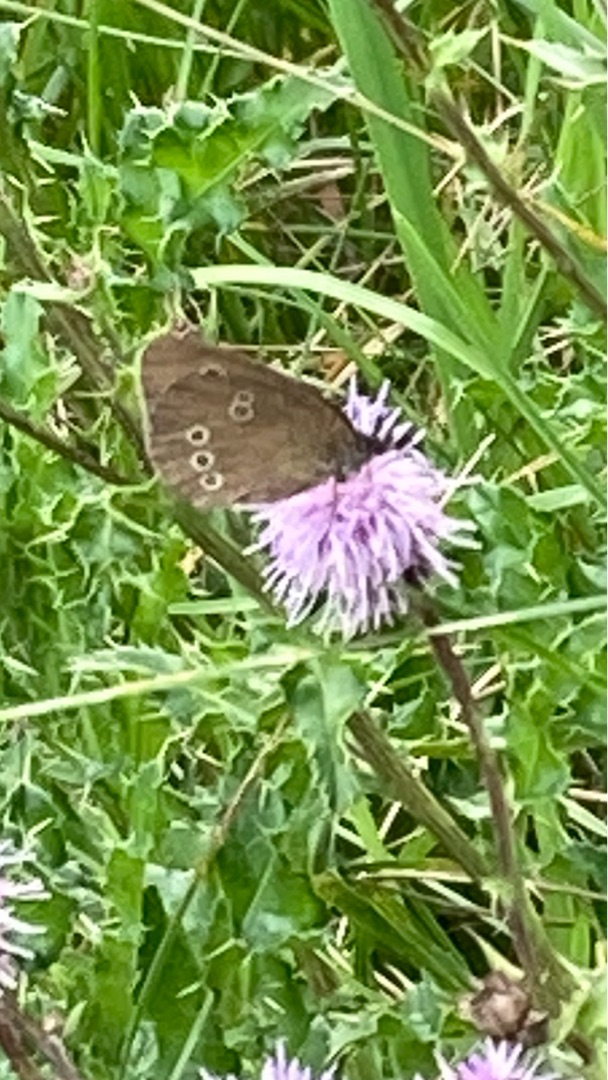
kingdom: Animalia
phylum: Arthropoda
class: Insecta
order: Lepidoptera
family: Nymphalidae
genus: Aphantopus
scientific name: Aphantopus hyperantus
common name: Engrandøje
